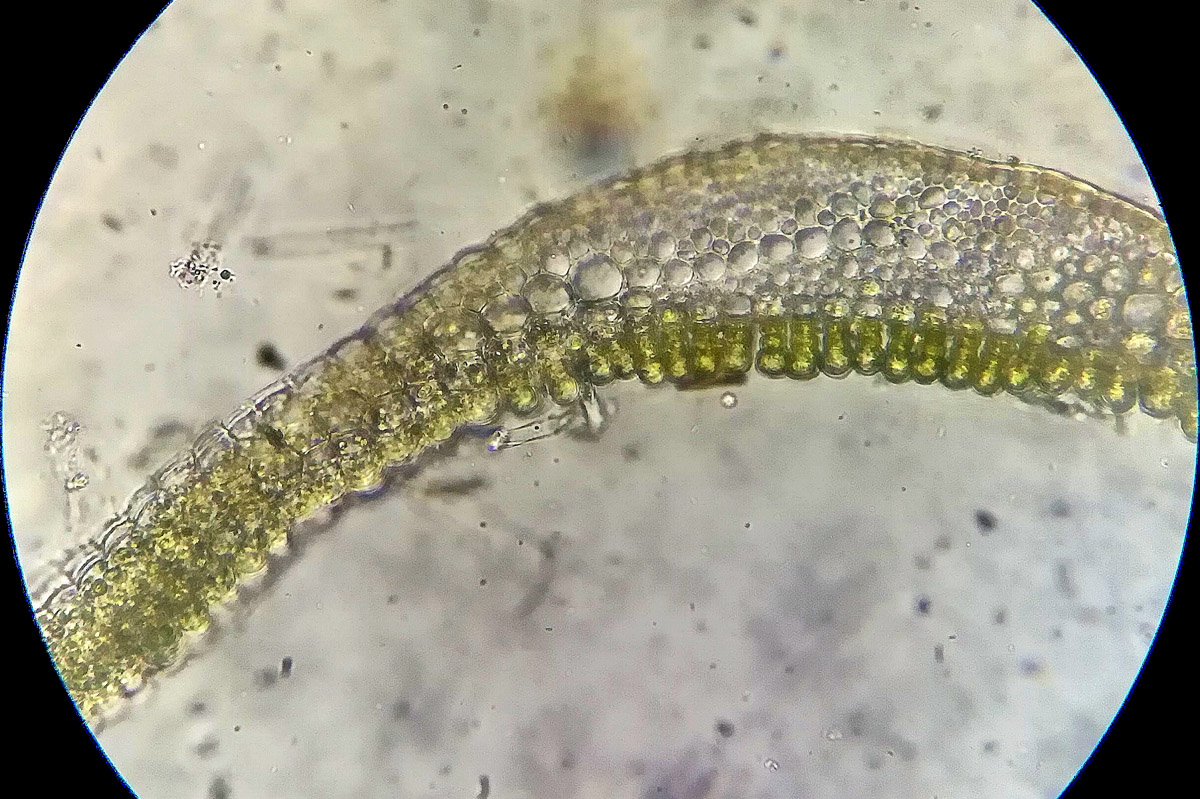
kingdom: Plantae
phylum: Bryophyta
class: Polytrichopsida
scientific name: Polytrichopsida
